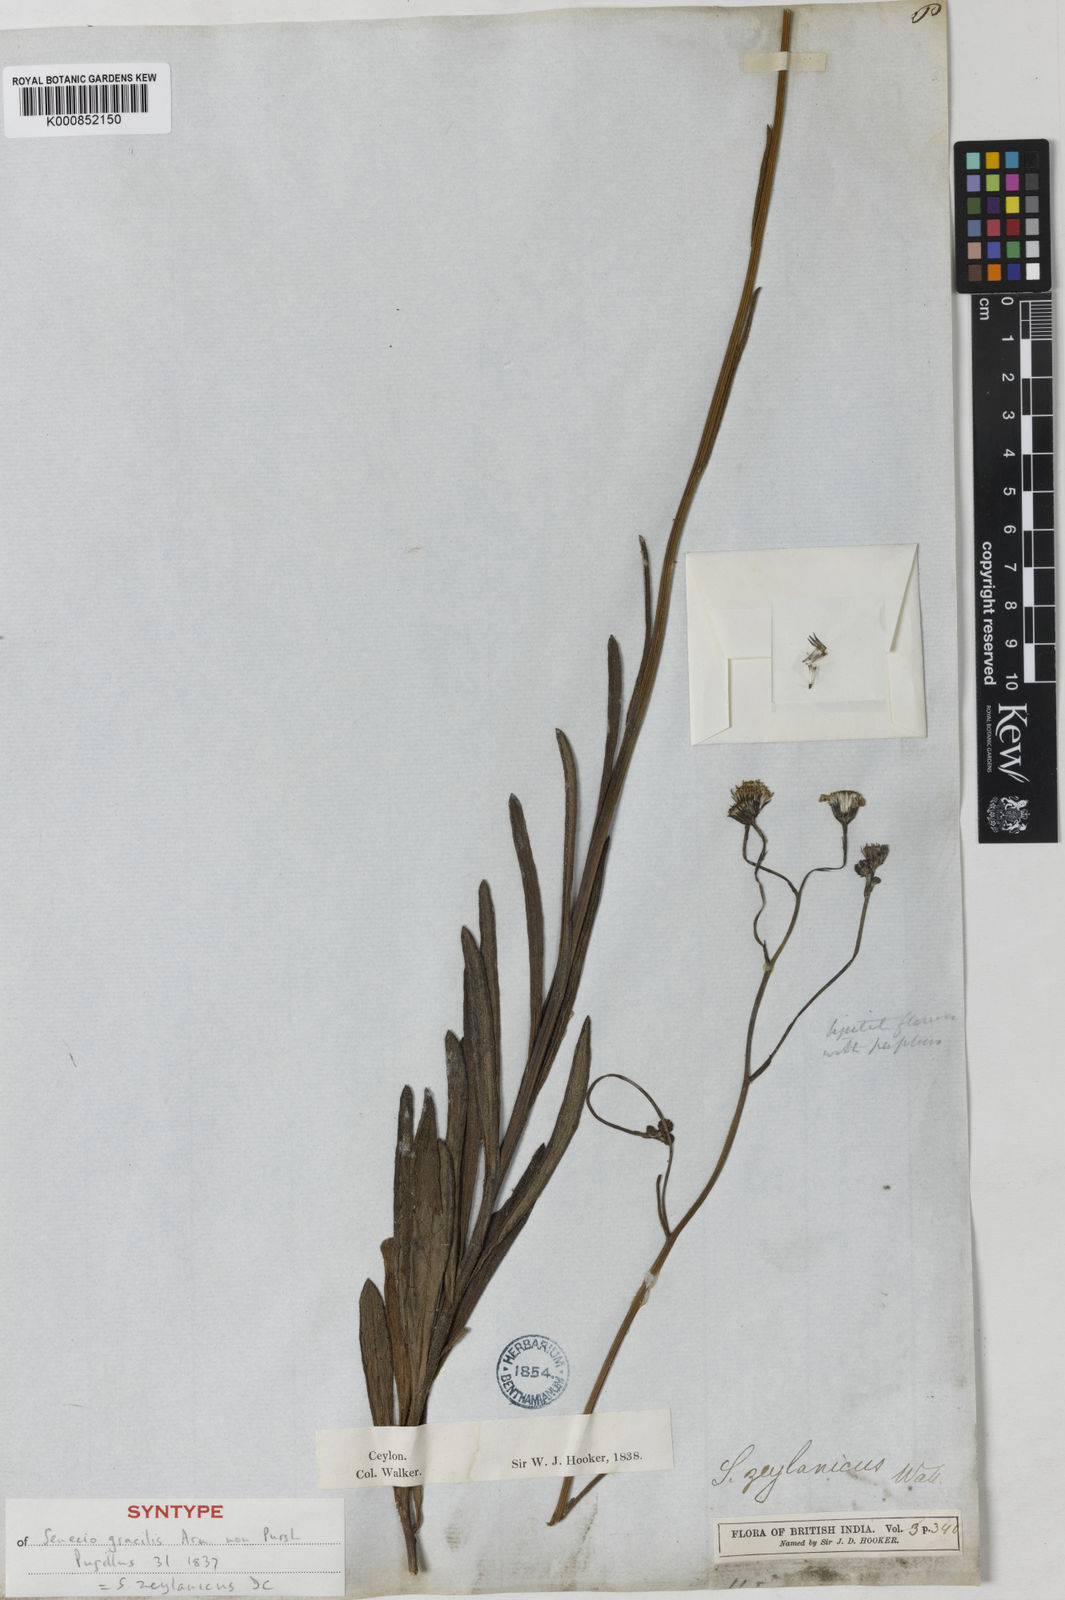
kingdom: Plantae
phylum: Tracheophyta
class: Magnoliopsida
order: Asterales
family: Asteraceae
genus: Senecio
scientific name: Senecio zeylanicus
